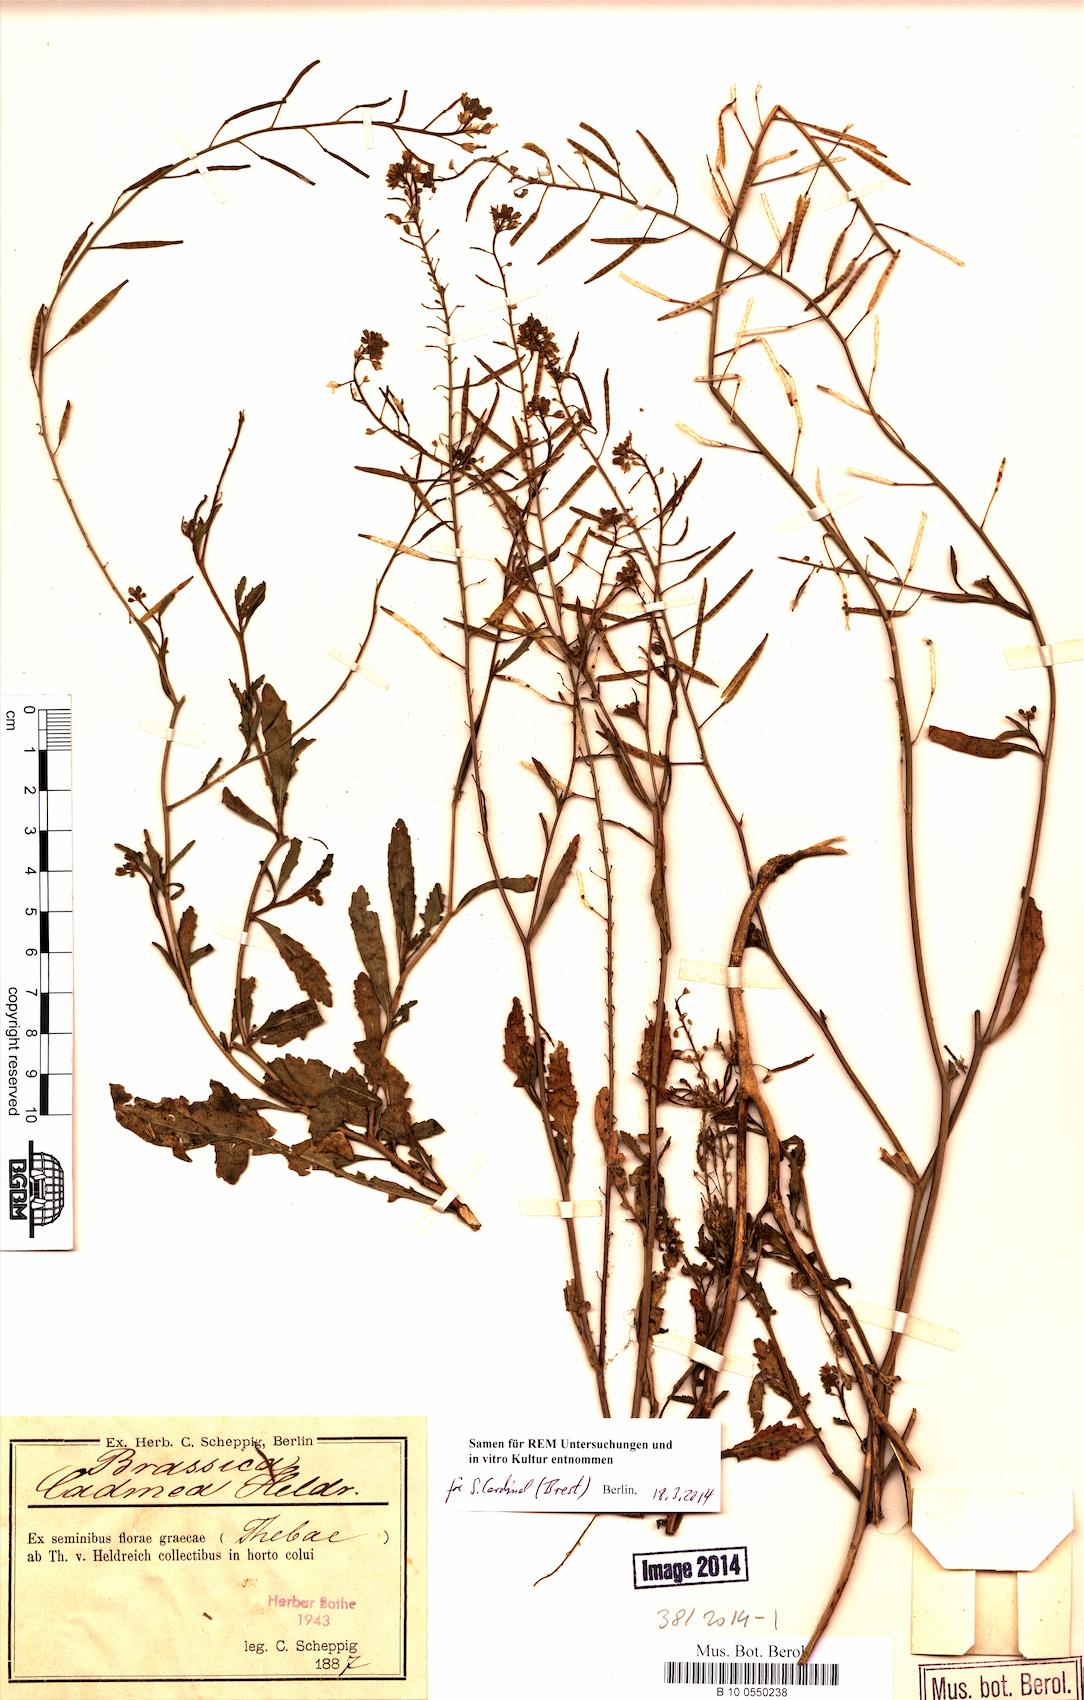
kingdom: Plantae
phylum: Tracheophyta
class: Magnoliopsida
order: Brassicales
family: Brassicaceae
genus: Brassica
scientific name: Brassica cadmea
